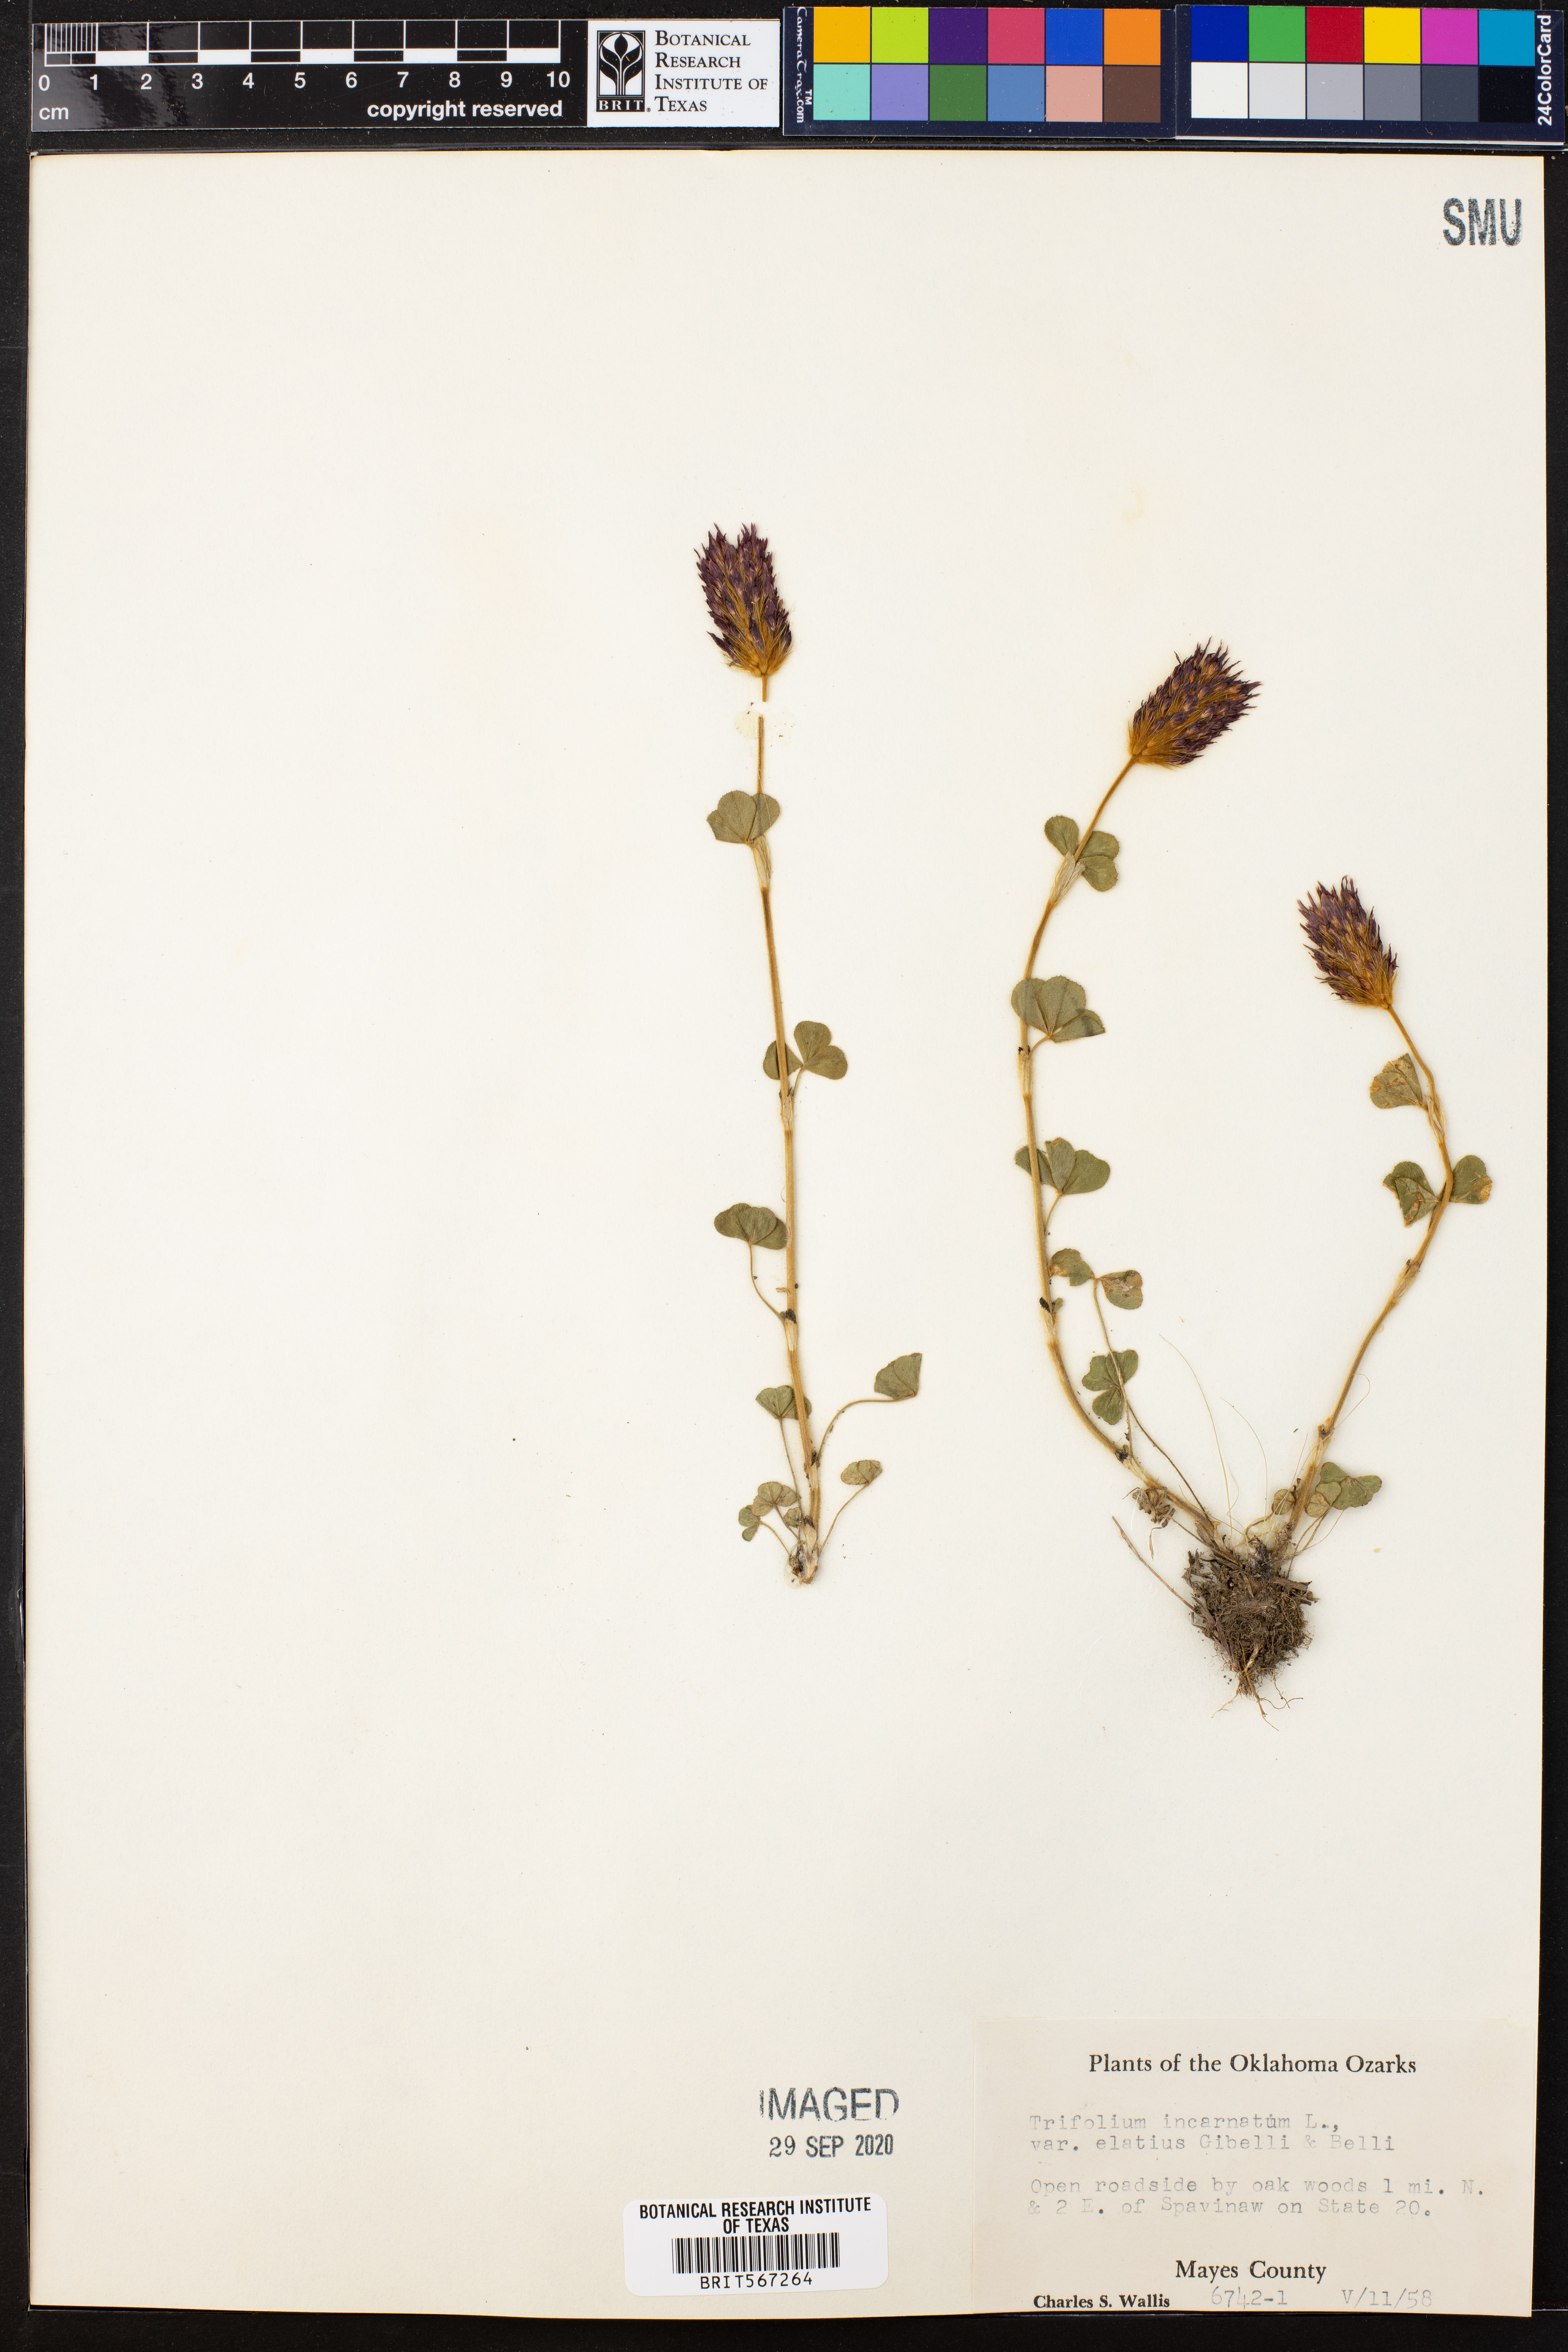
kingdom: Plantae
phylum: Tracheophyta
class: Magnoliopsida
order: Fabales
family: Fabaceae
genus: Trifolium
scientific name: Trifolium incarnatum
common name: Crimson clover
